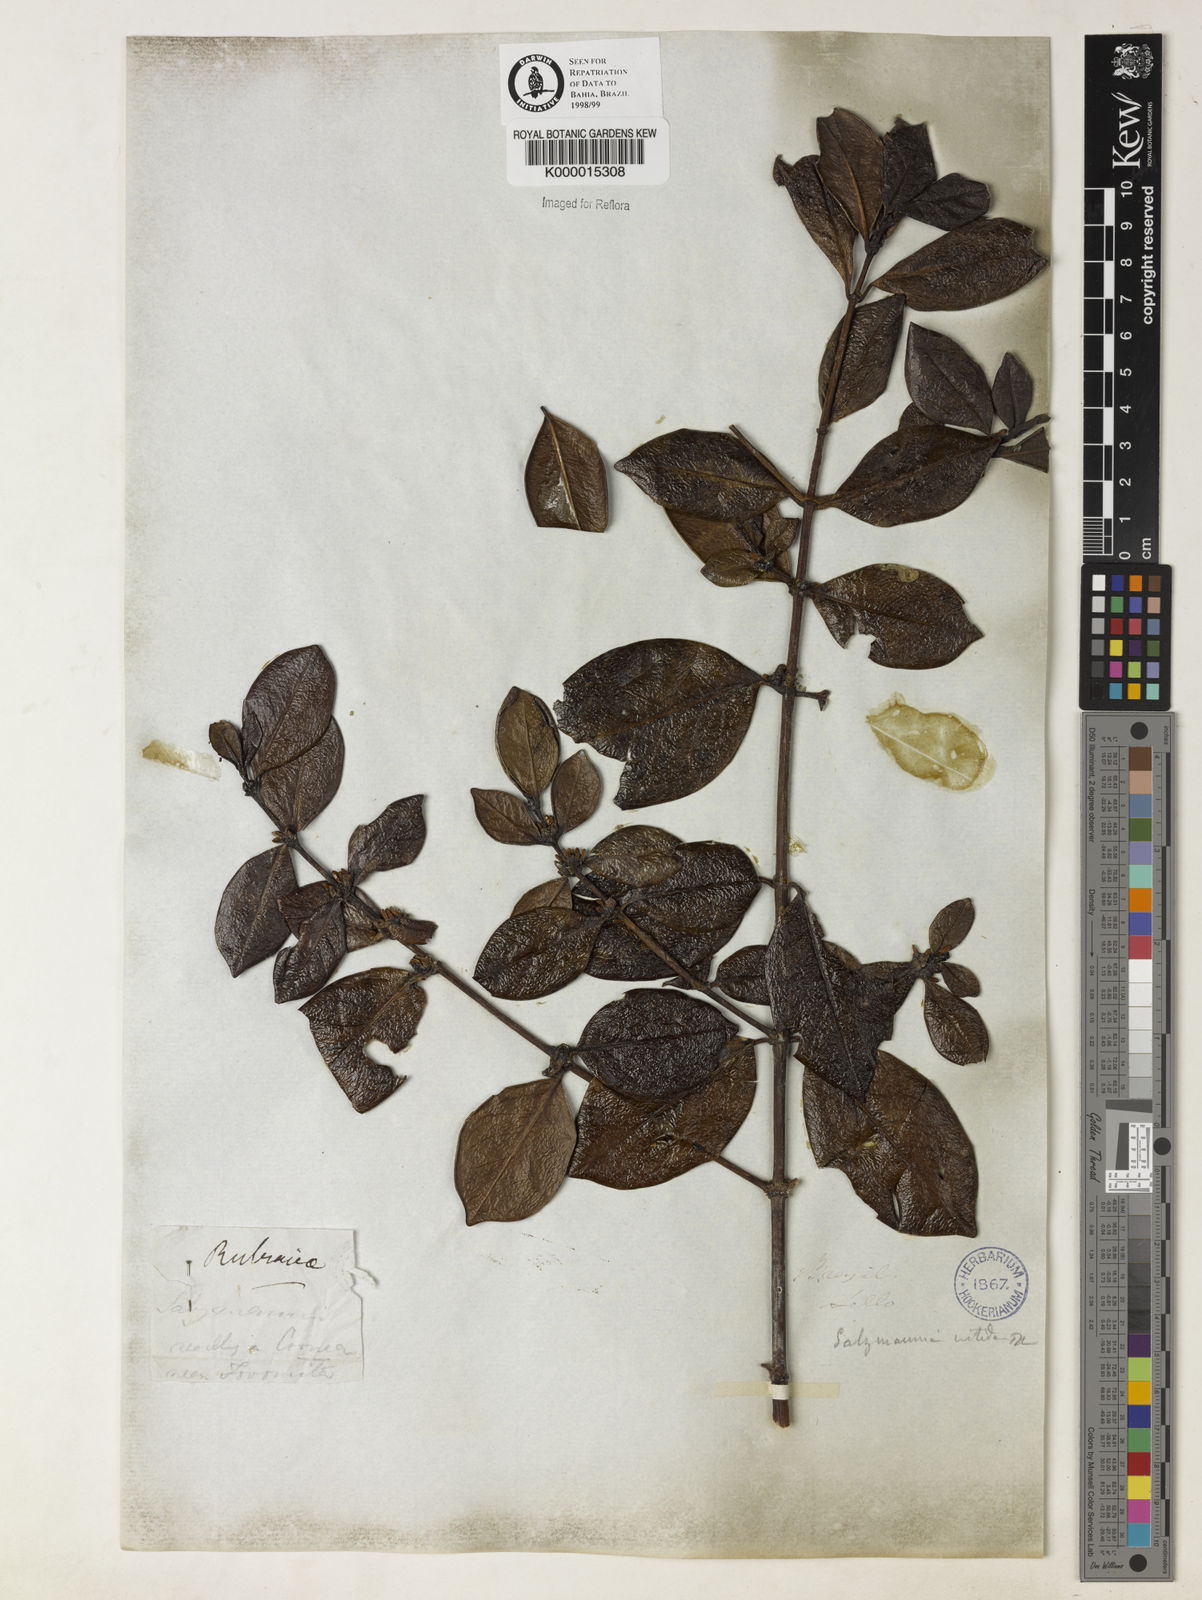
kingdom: Plantae
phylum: Tracheophyta
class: Magnoliopsida
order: Gentianales
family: Rubiaceae
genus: Salzmannia
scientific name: Salzmannia nitida
